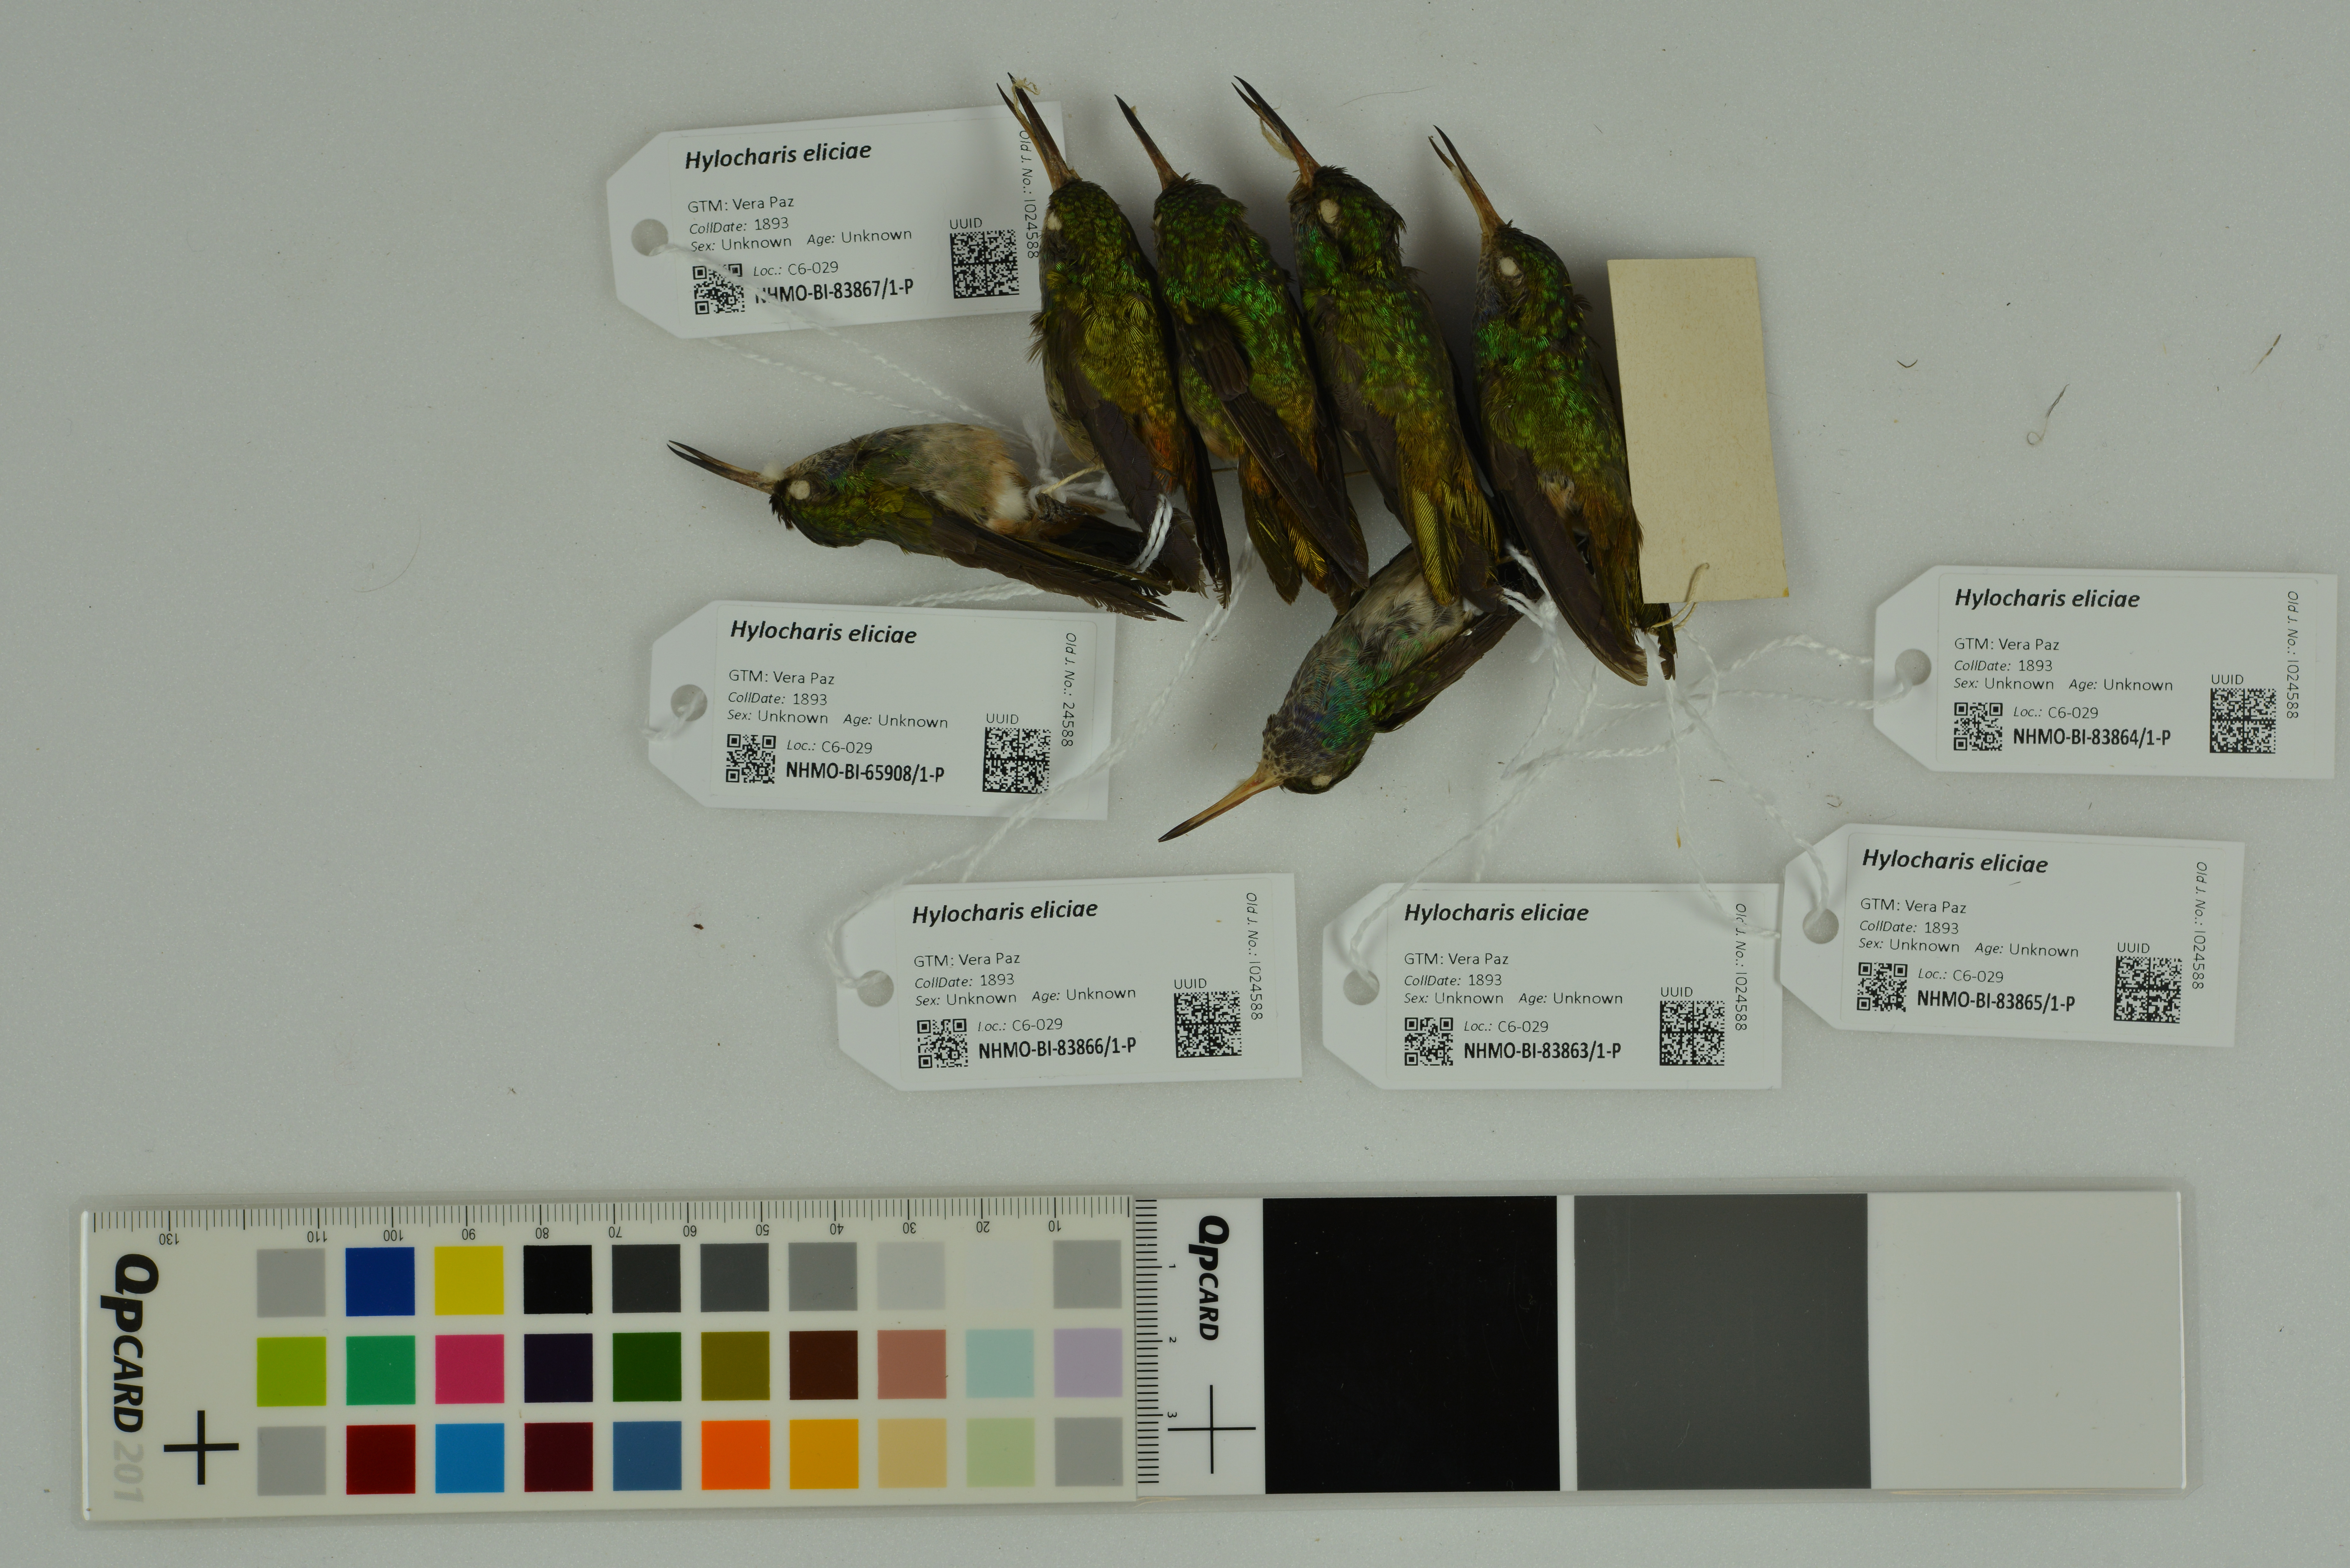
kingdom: Animalia
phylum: Chordata
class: Aves
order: Apodiformes
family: Trochilidae
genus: Chlorestes
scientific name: Chlorestes eliciae
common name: Blue-throated sapphire
